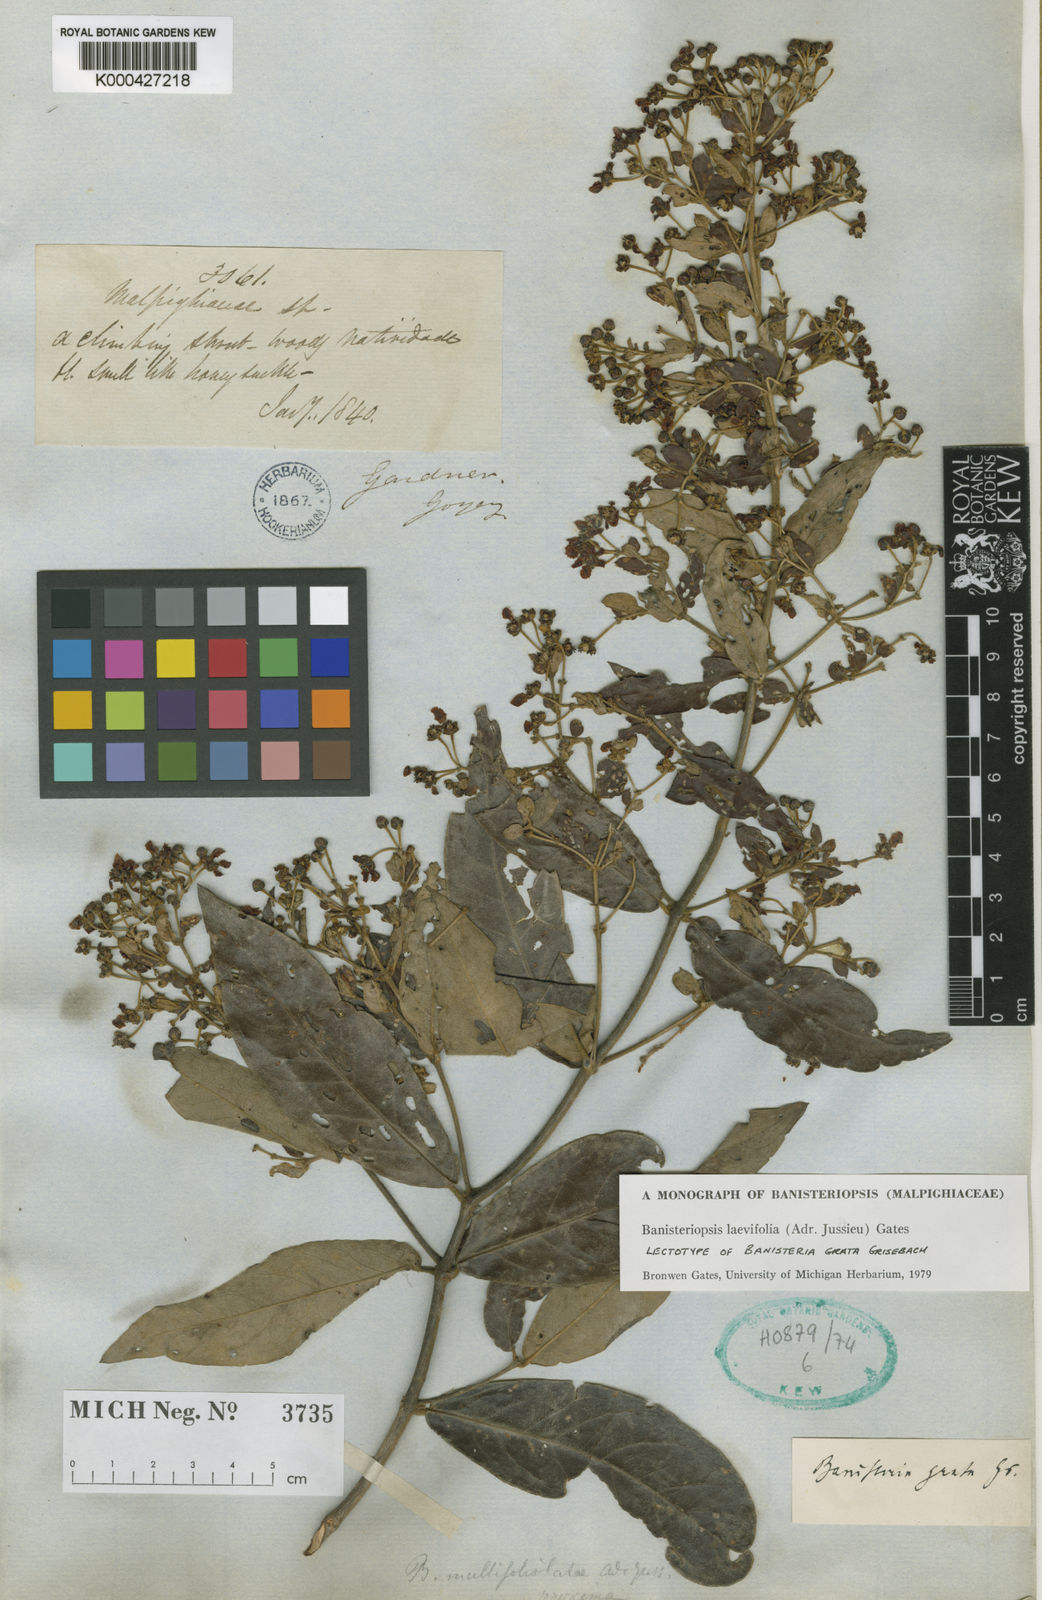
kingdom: Plantae
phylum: Tracheophyta
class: Magnoliopsida
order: Malpighiales
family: Malpighiaceae
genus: Banisteriopsis
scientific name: Banisteriopsis laevifolia
